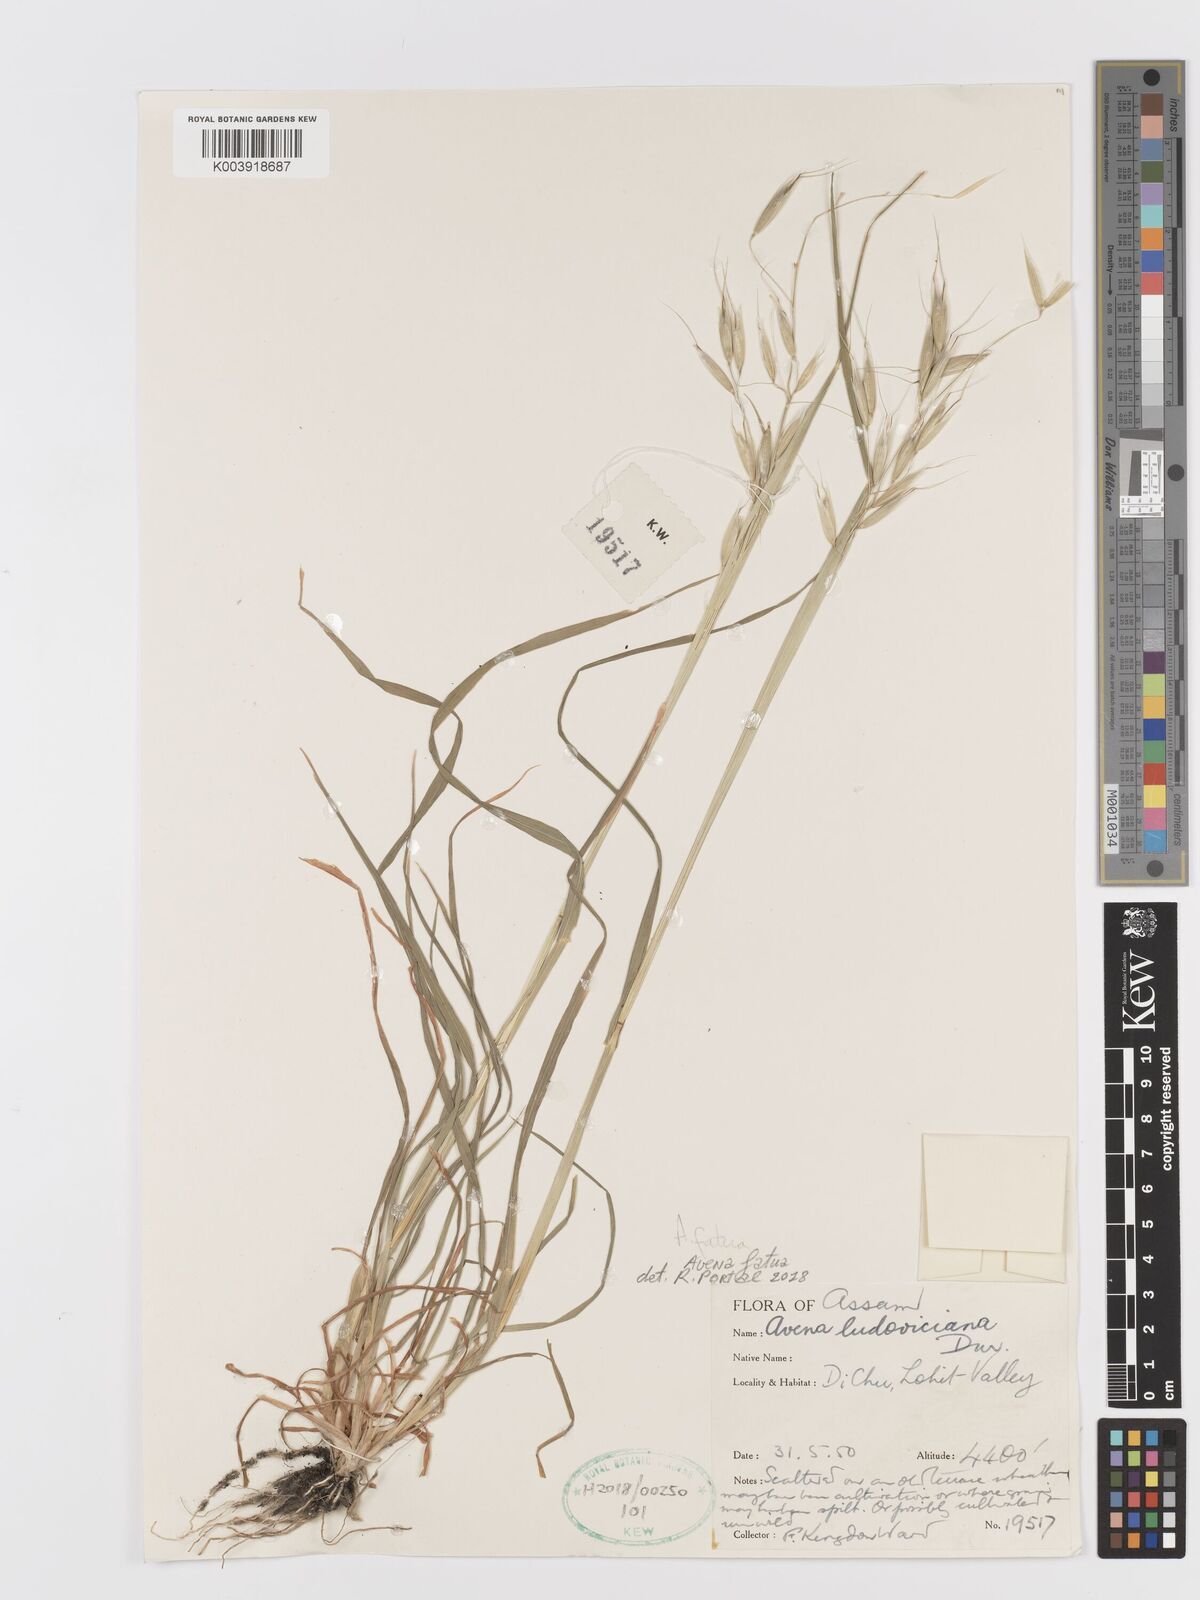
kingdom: Plantae
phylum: Tracheophyta
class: Liliopsida
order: Poales
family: Poaceae
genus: Avena
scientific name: Avena fatua
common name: Wild oat
